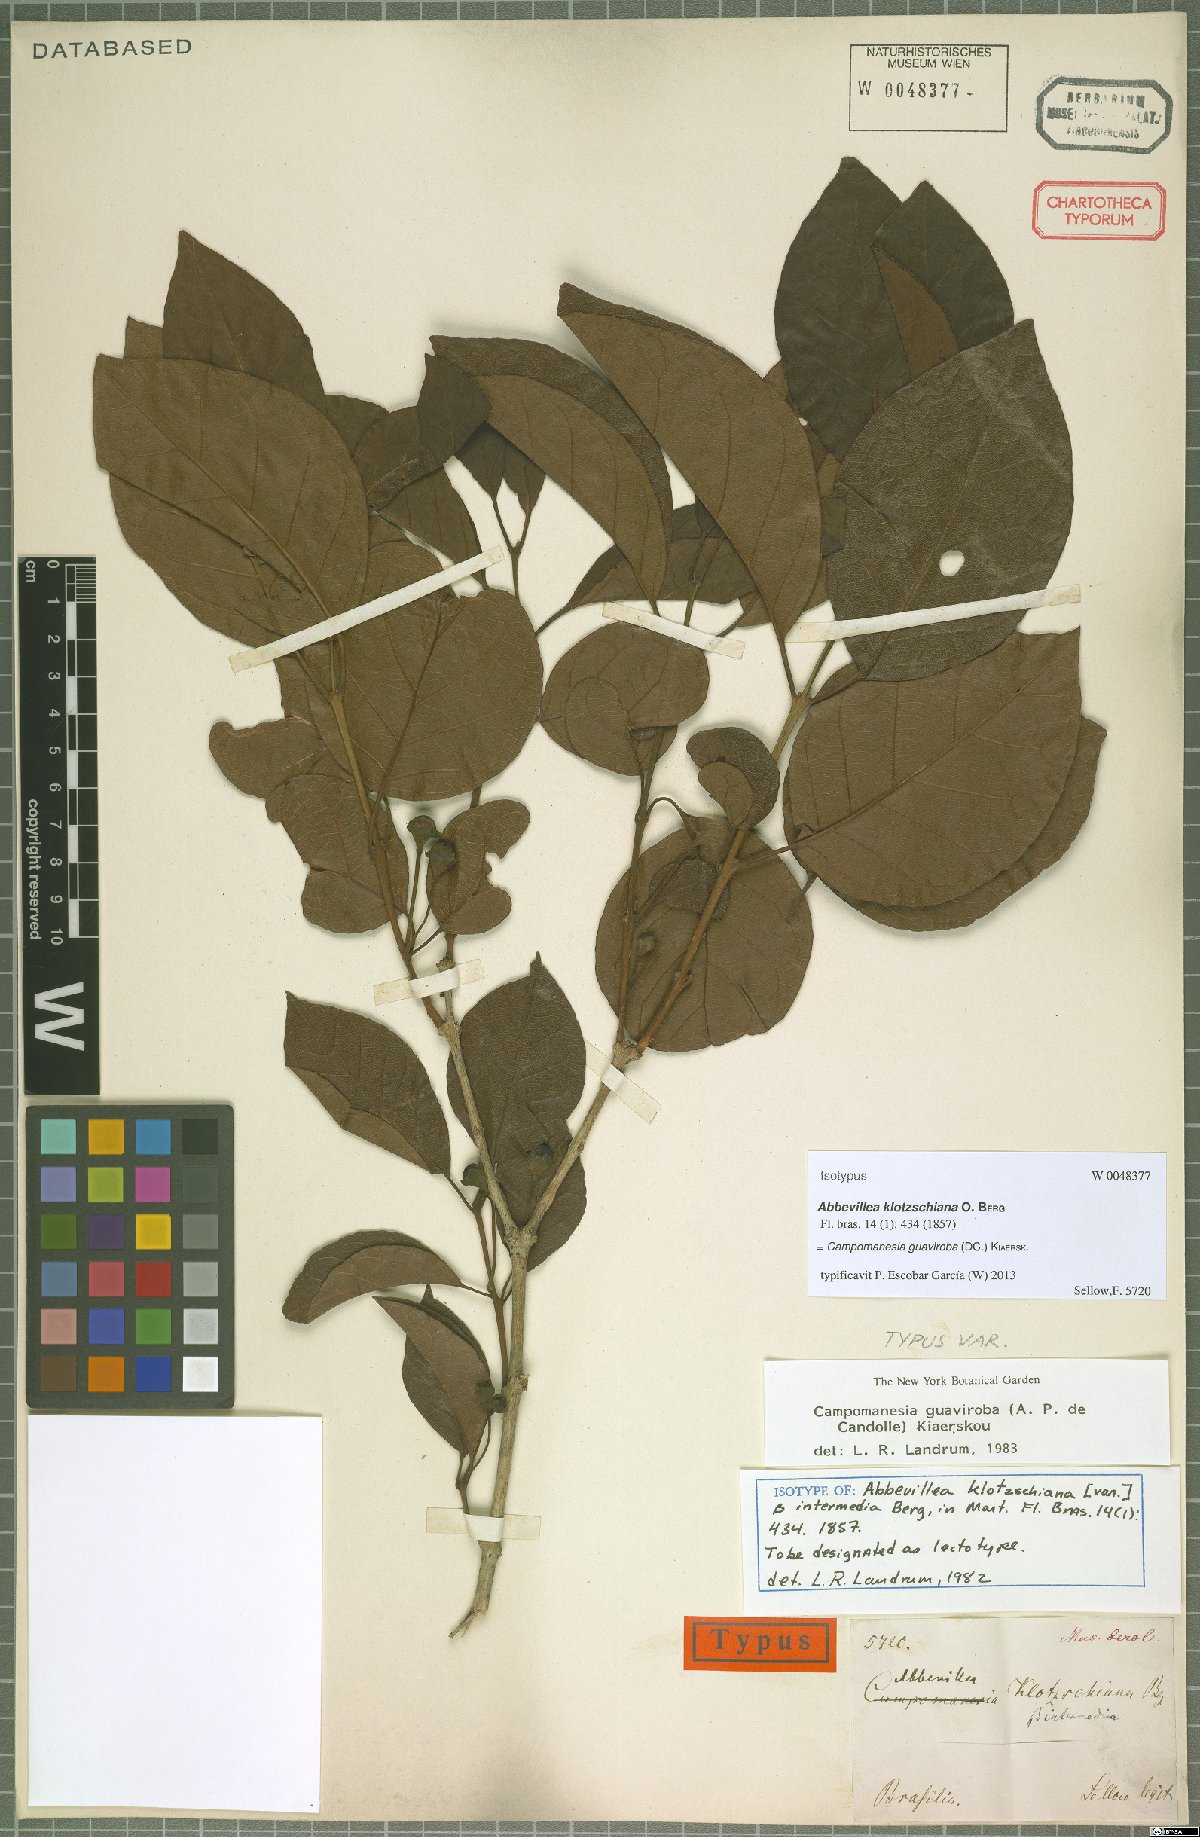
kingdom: Plantae
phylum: Tracheophyta
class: Magnoliopsida
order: Myrtales
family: Myrtaceae
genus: Campomanesia
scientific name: Campomanesia guaviroba
